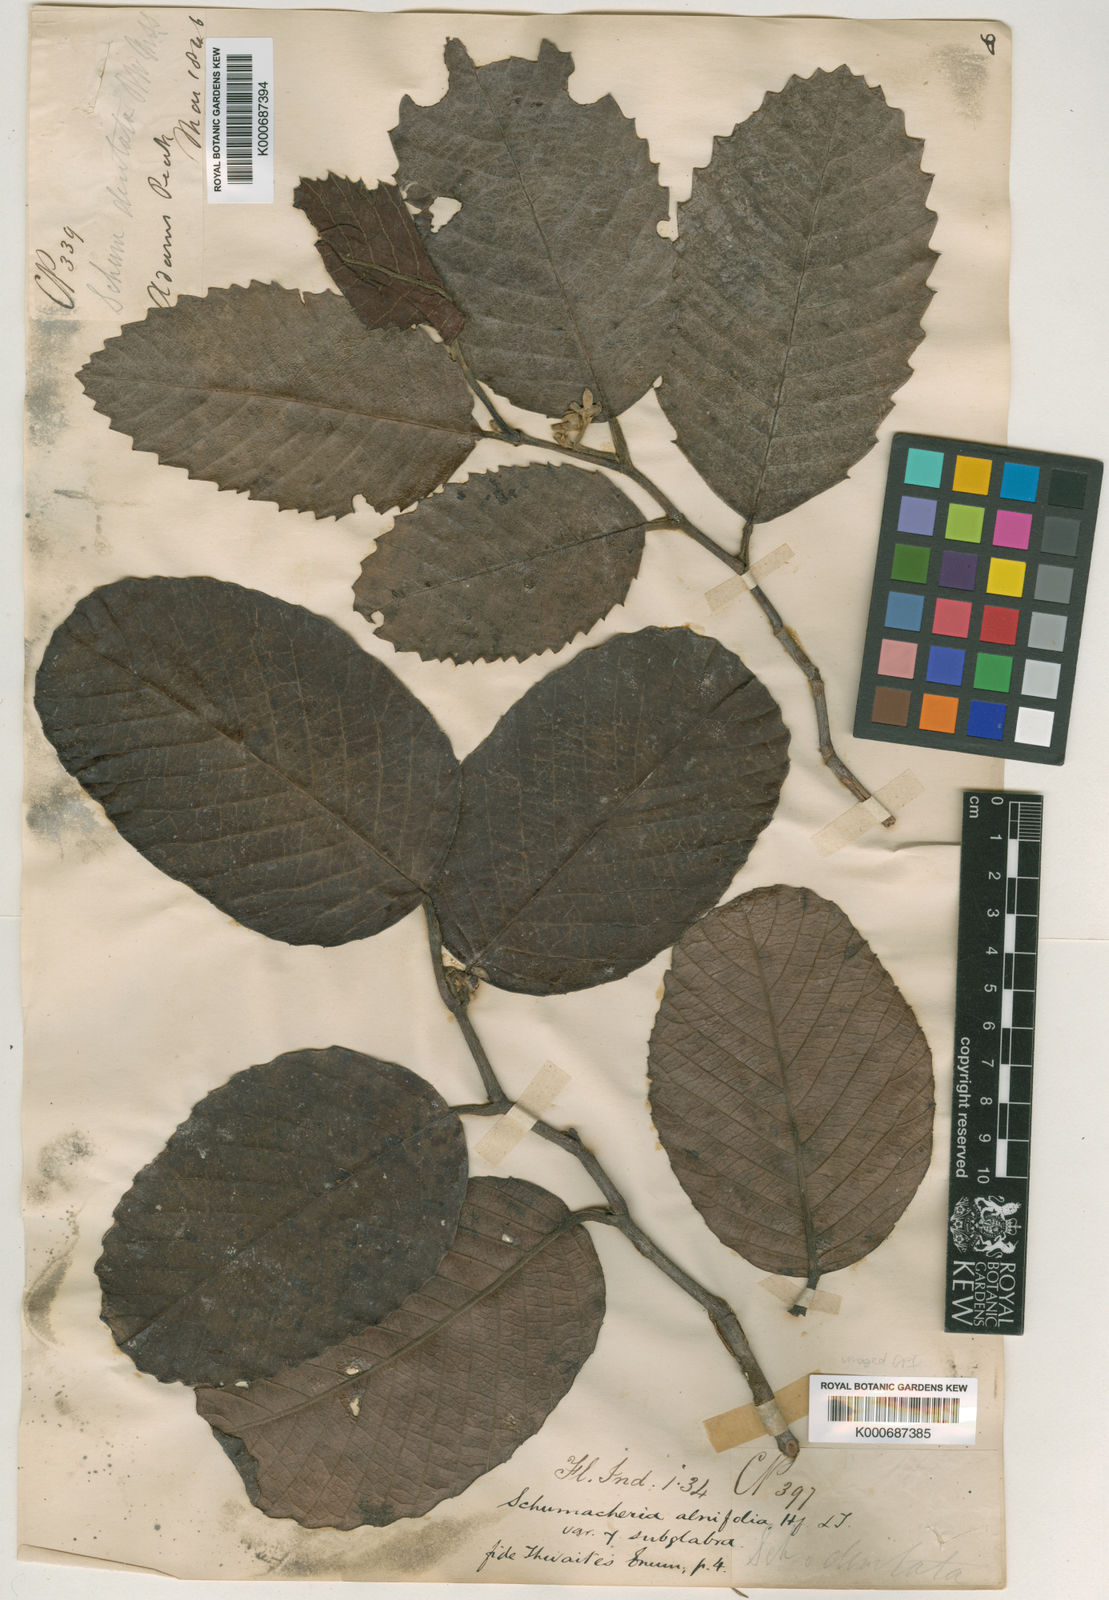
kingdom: Plantae
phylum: Tracheophyta
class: Magnoliopsida
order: Dilleniales
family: Dilleniaceae
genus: Schumacheria
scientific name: Schumacheria alnifolia
